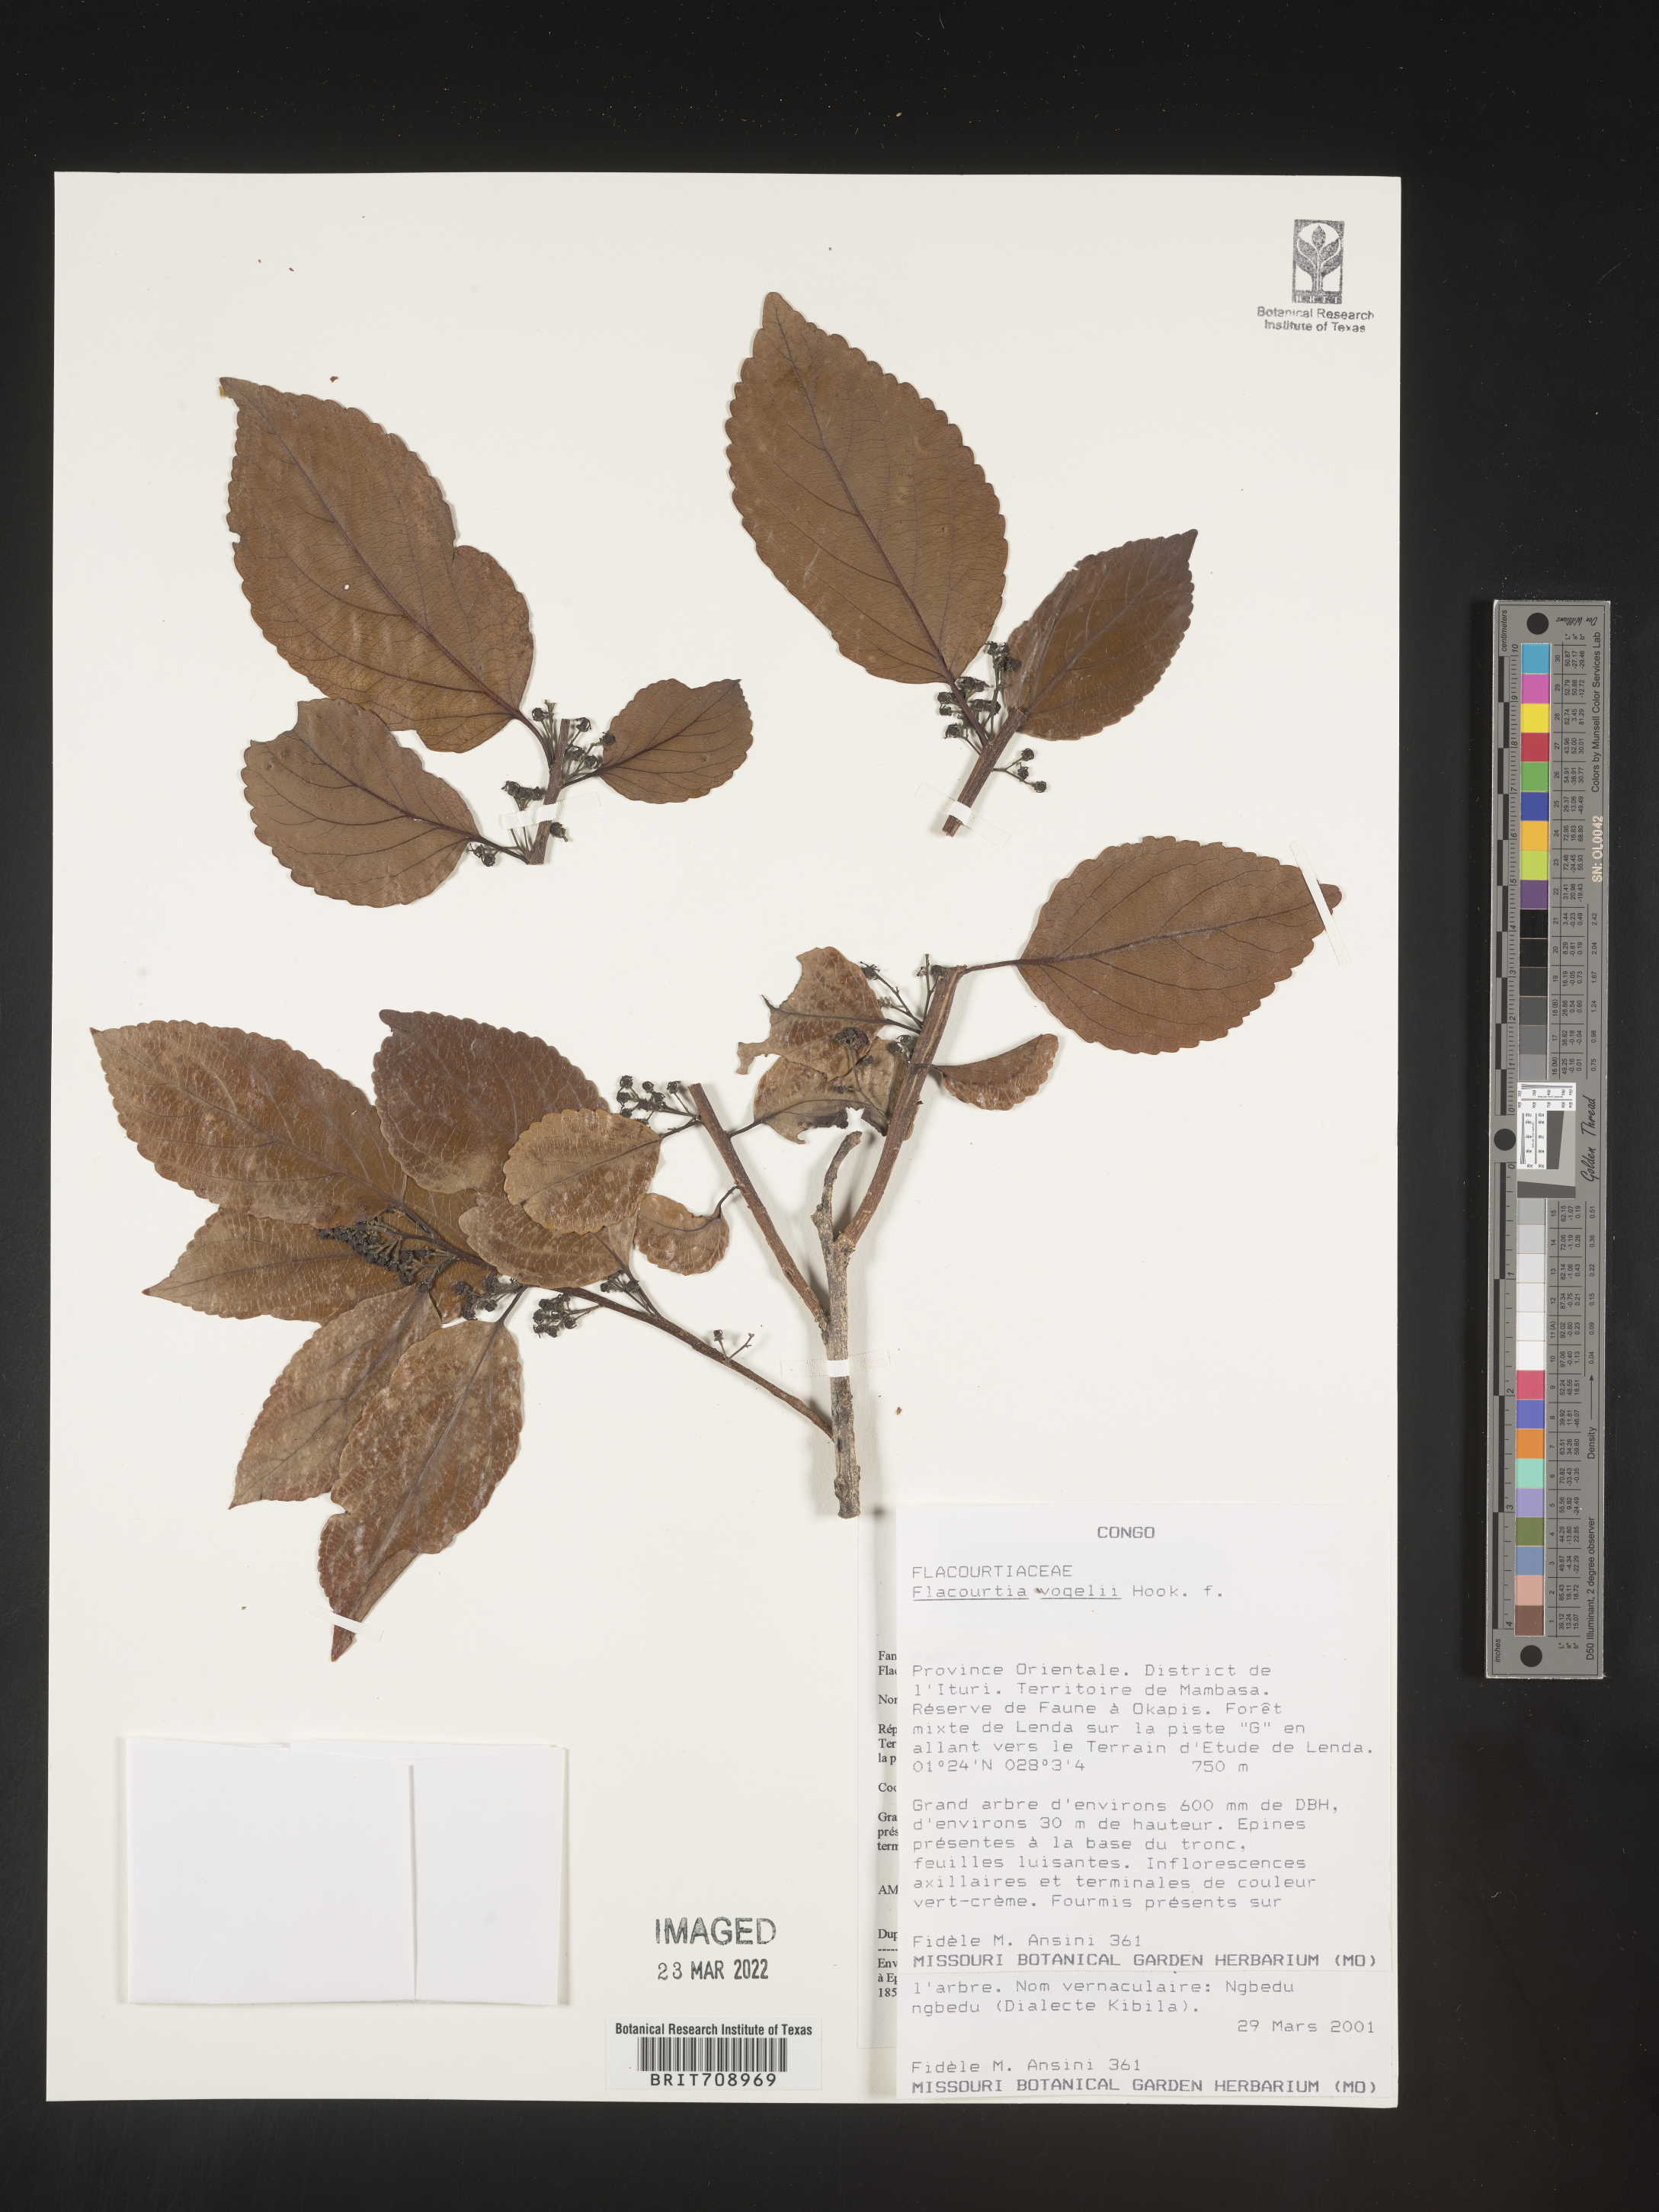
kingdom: Plantae
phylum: Tracheophyta
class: Magnoliopsida
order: Malpighiales
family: Salicaceae
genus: Flacourtia
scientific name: Flacourtia
